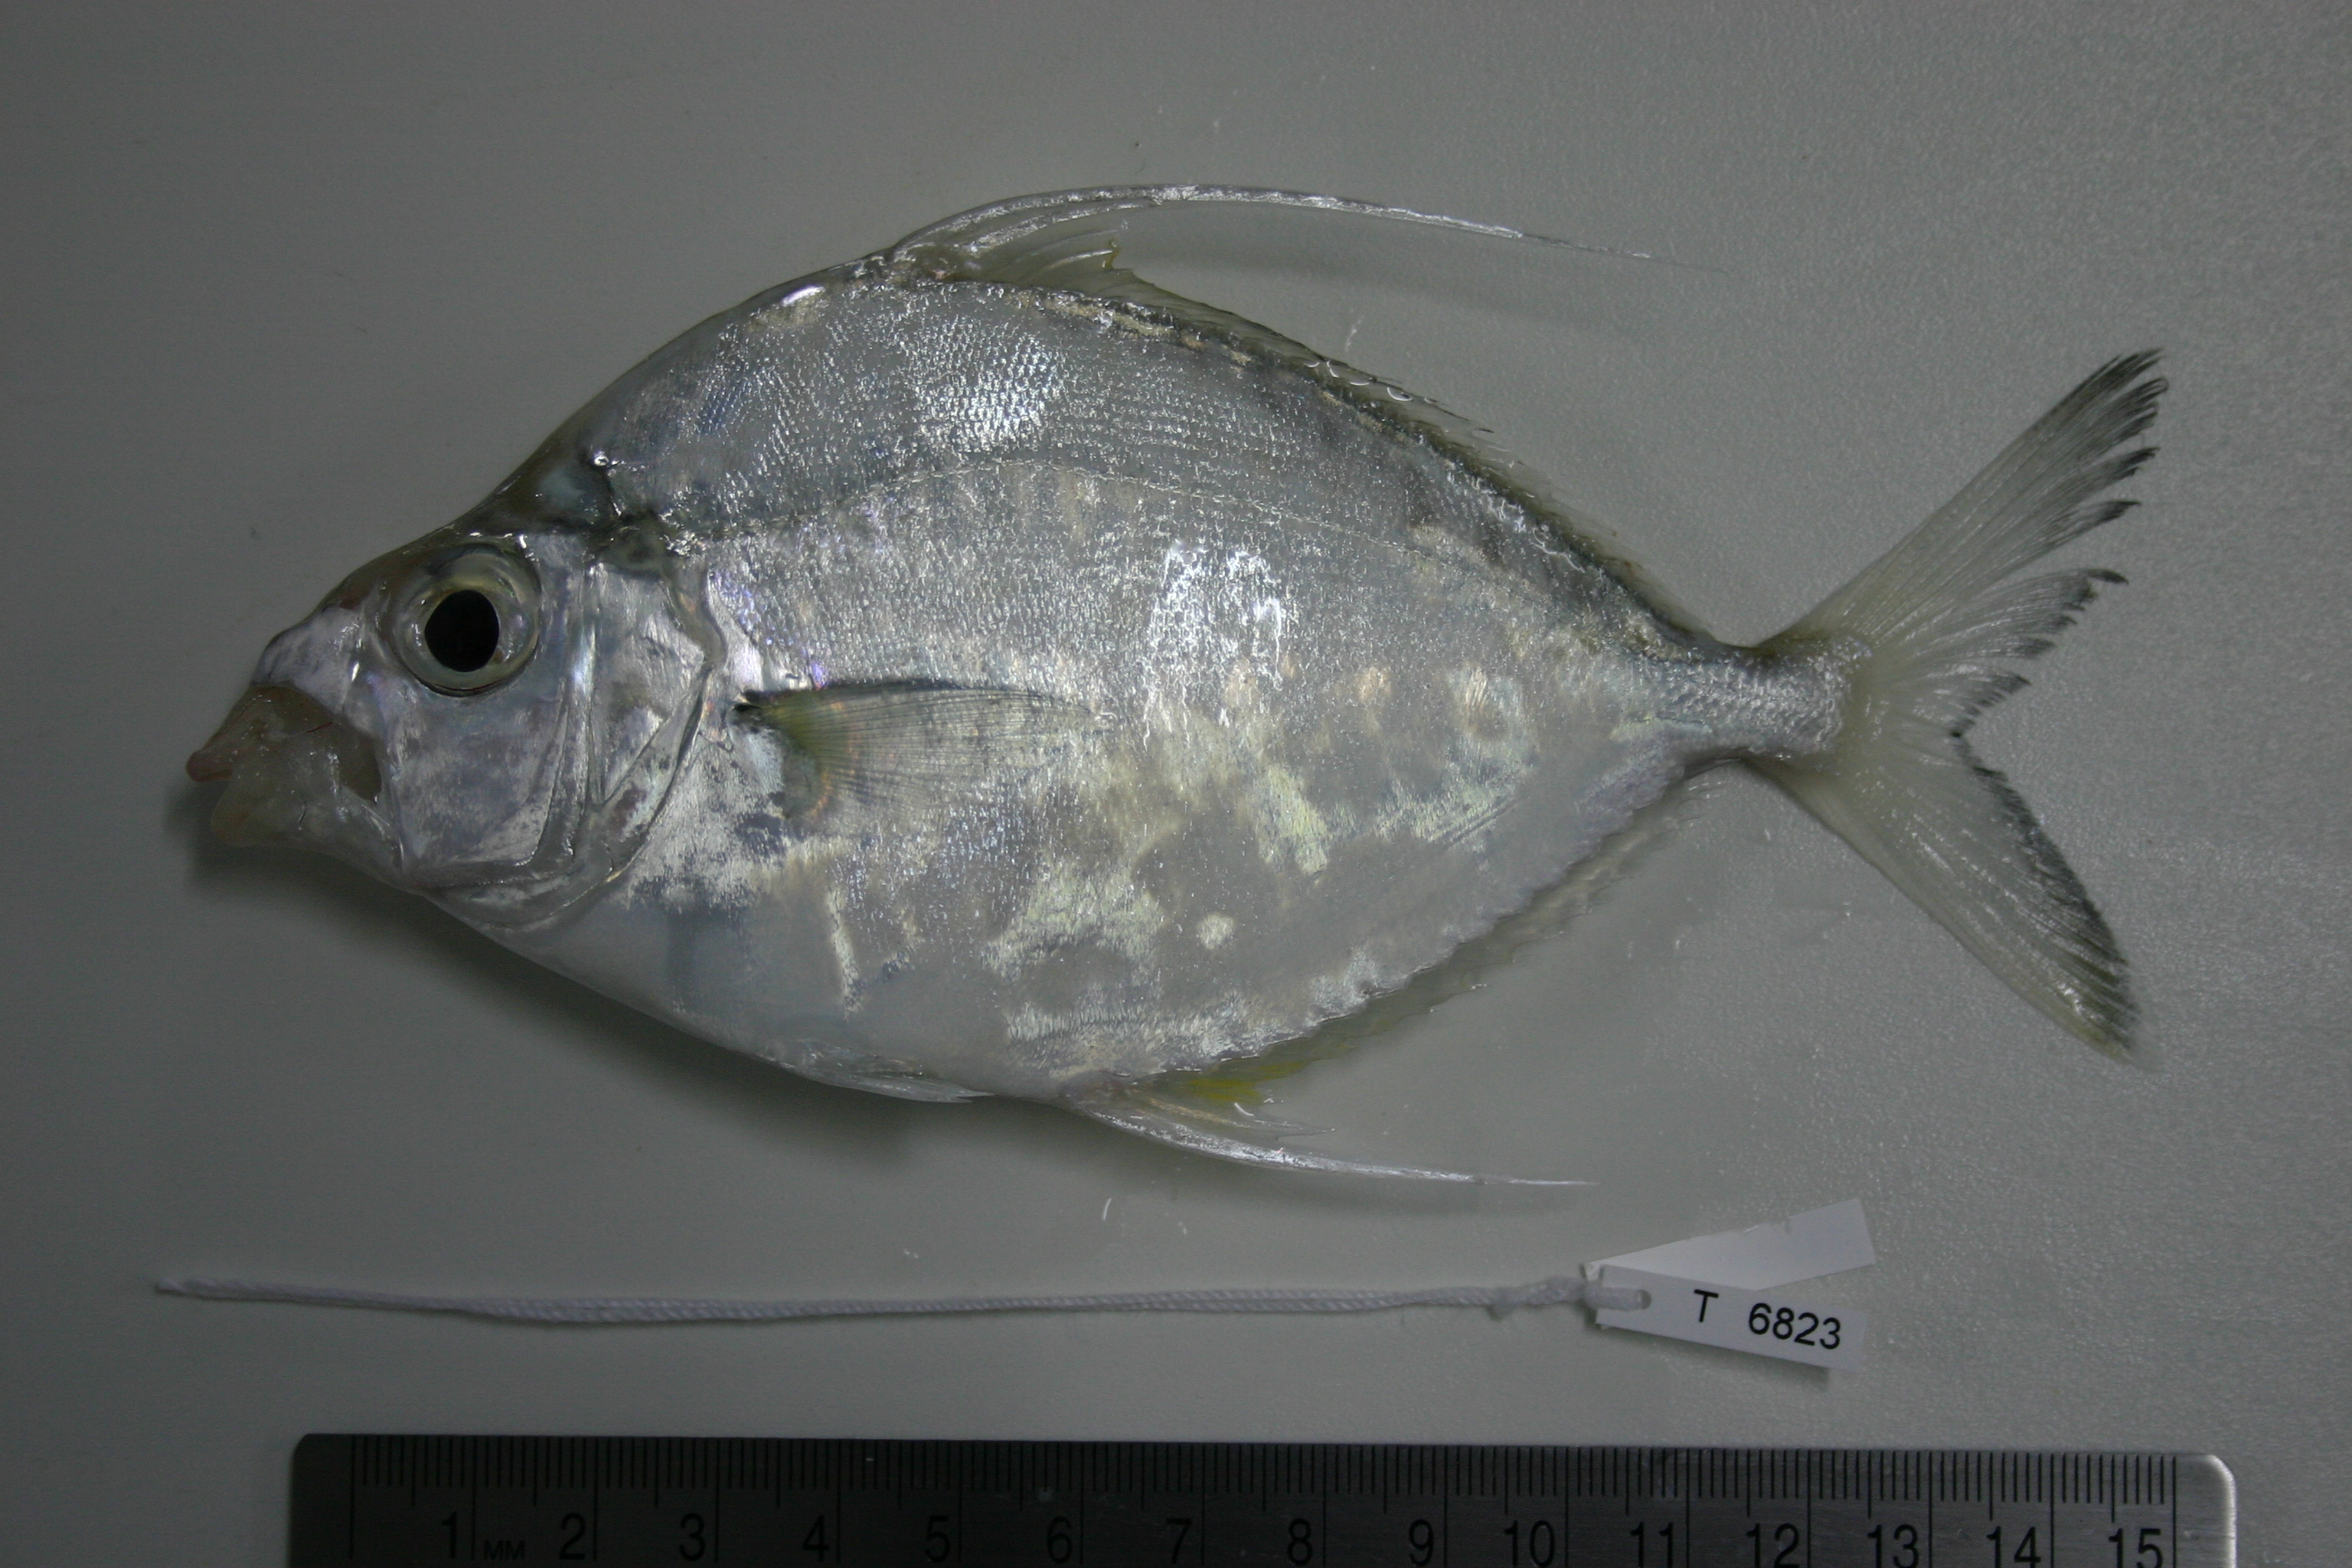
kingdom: Animalia
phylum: Chordata
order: Perciformes
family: Leiognathidae
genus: Leiognathus
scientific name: Leiognathus longispinis
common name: Smithurst's ponyfish
